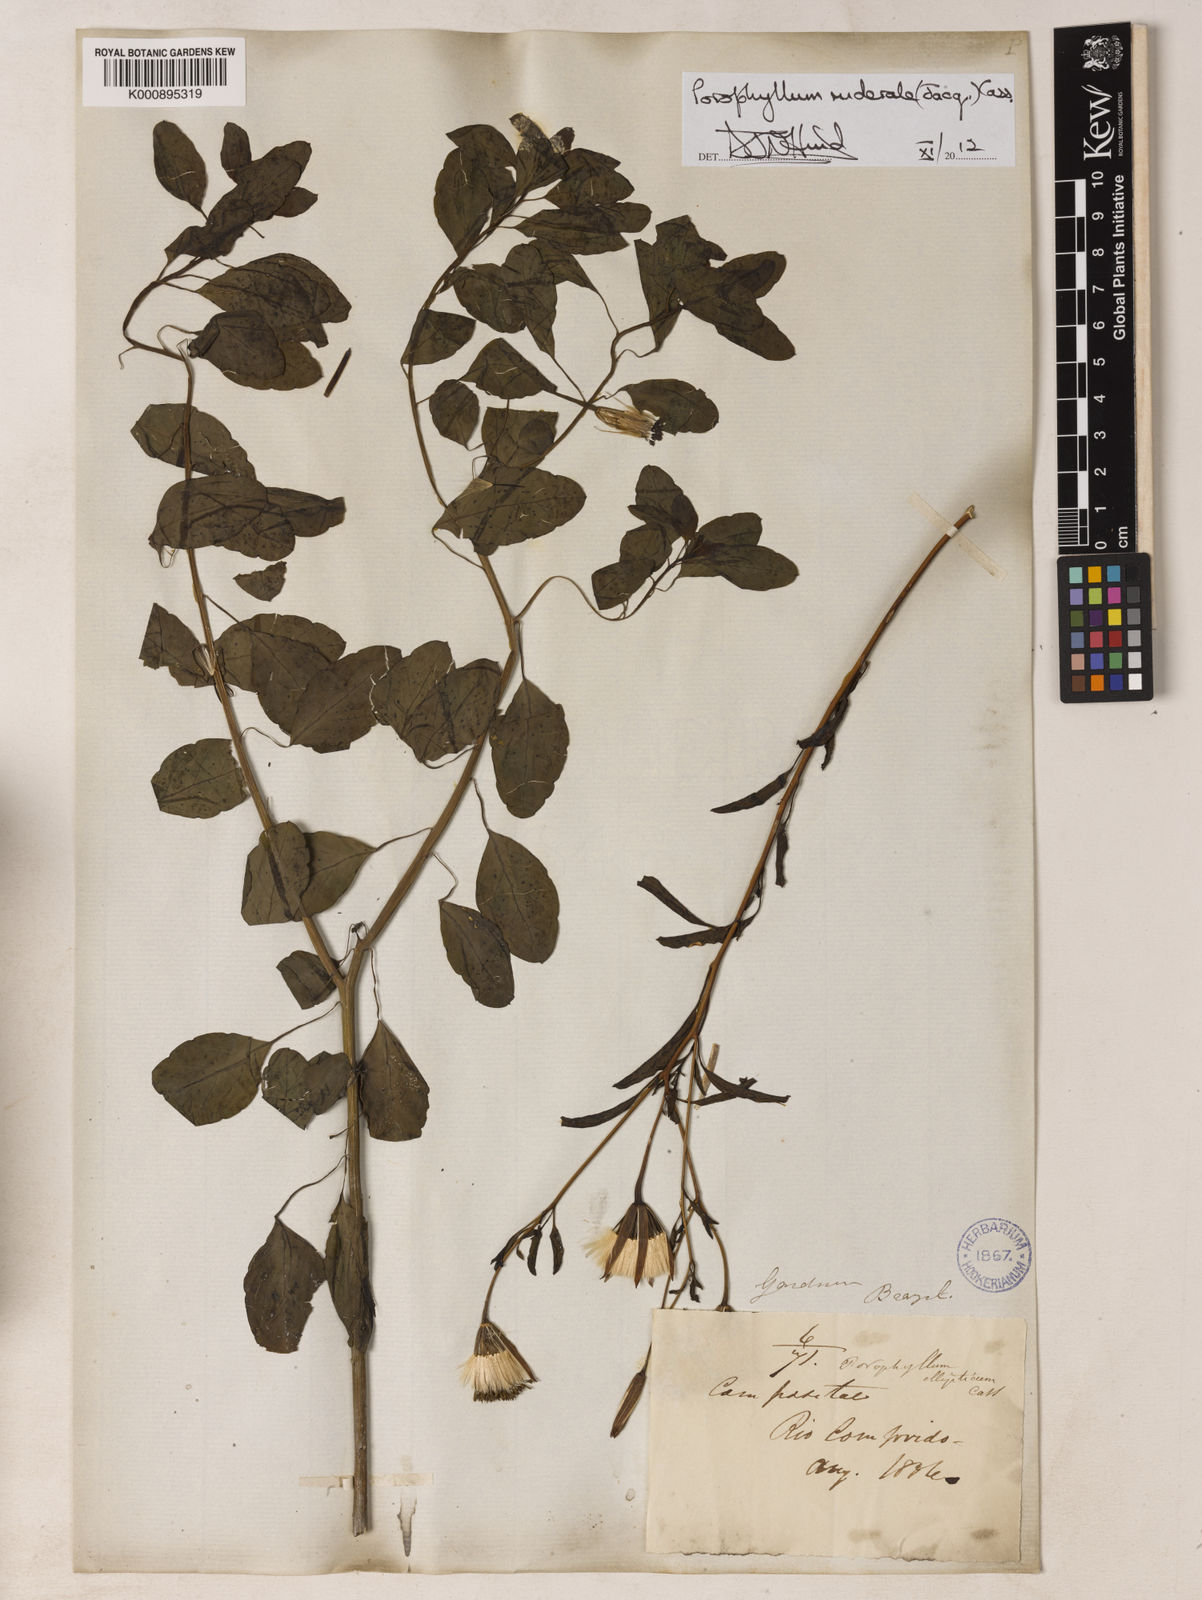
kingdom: Plantae
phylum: Tracheophyta
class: Magnoliopsida
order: Asterales
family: Asteraceae
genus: Porophyllum
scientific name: Porophyllum ruderale
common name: Yerba porosa
